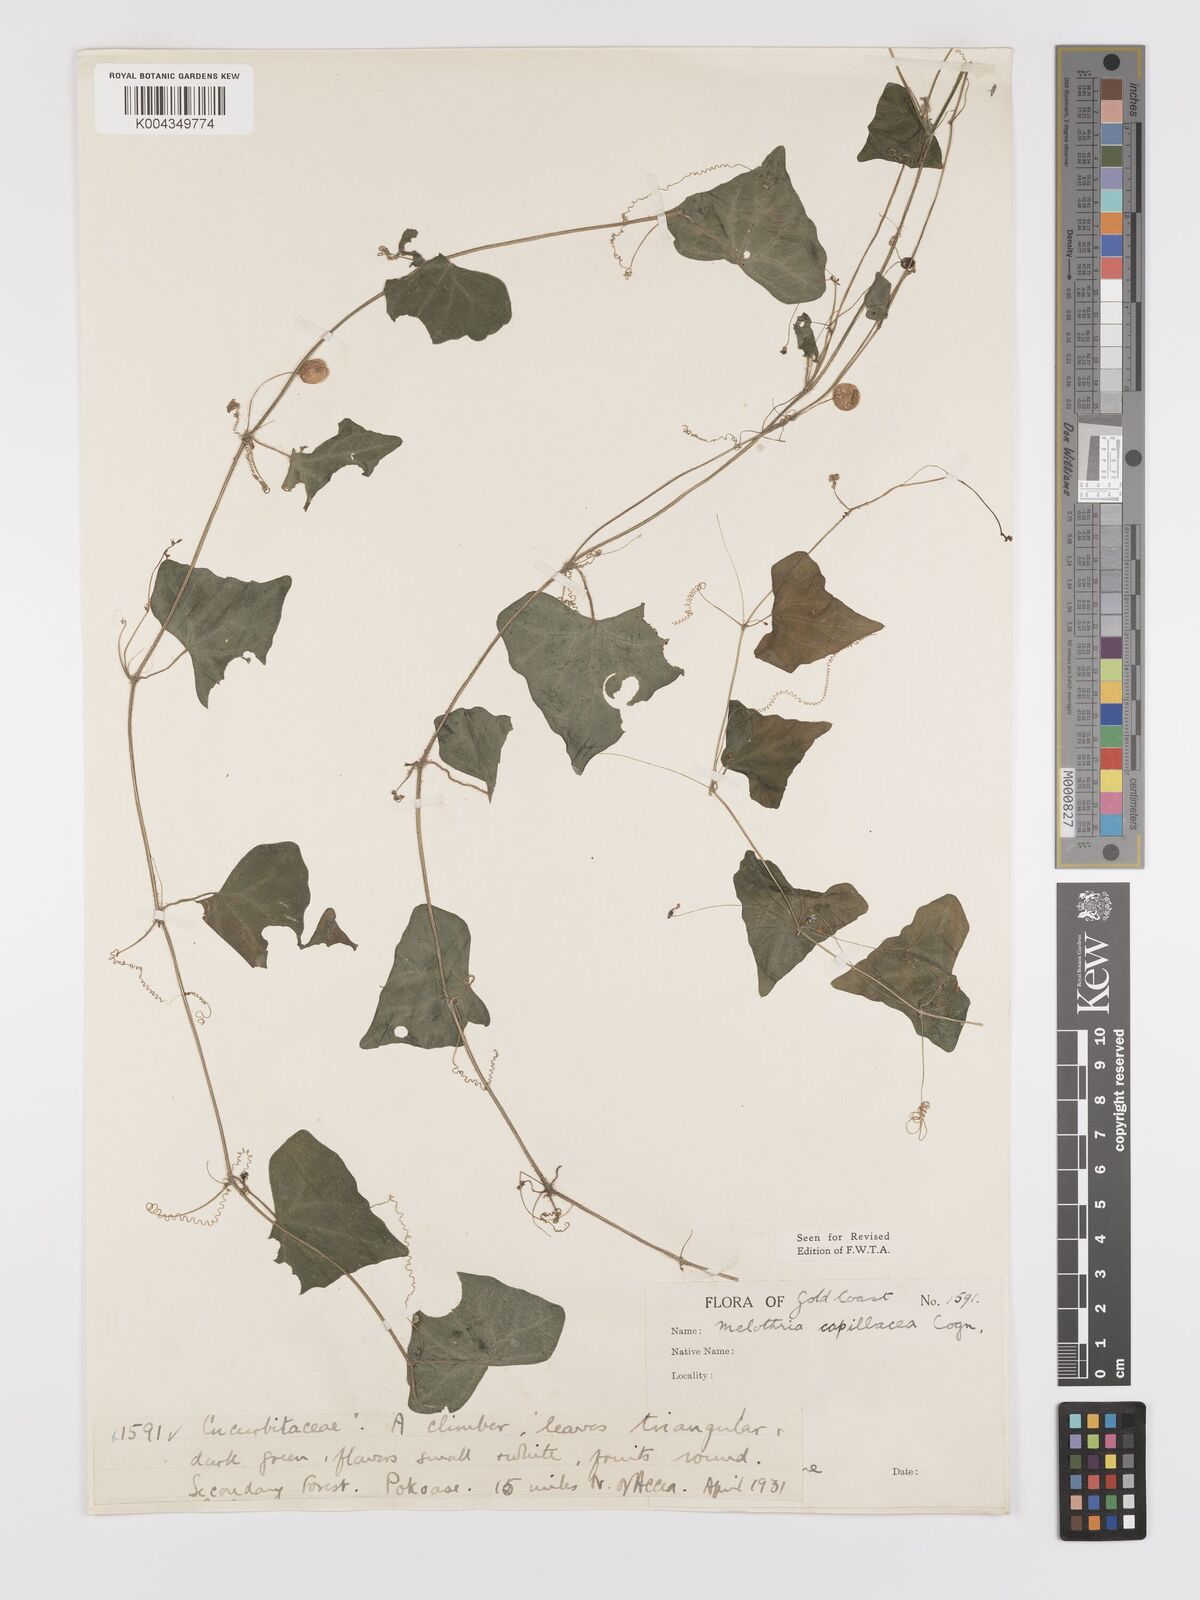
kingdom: Plantae
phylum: Tracheophyta
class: Magnoliopsida
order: Cucurbitales
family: Cucurbitaceae
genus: Zehneria
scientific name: Zehneria capillacea
